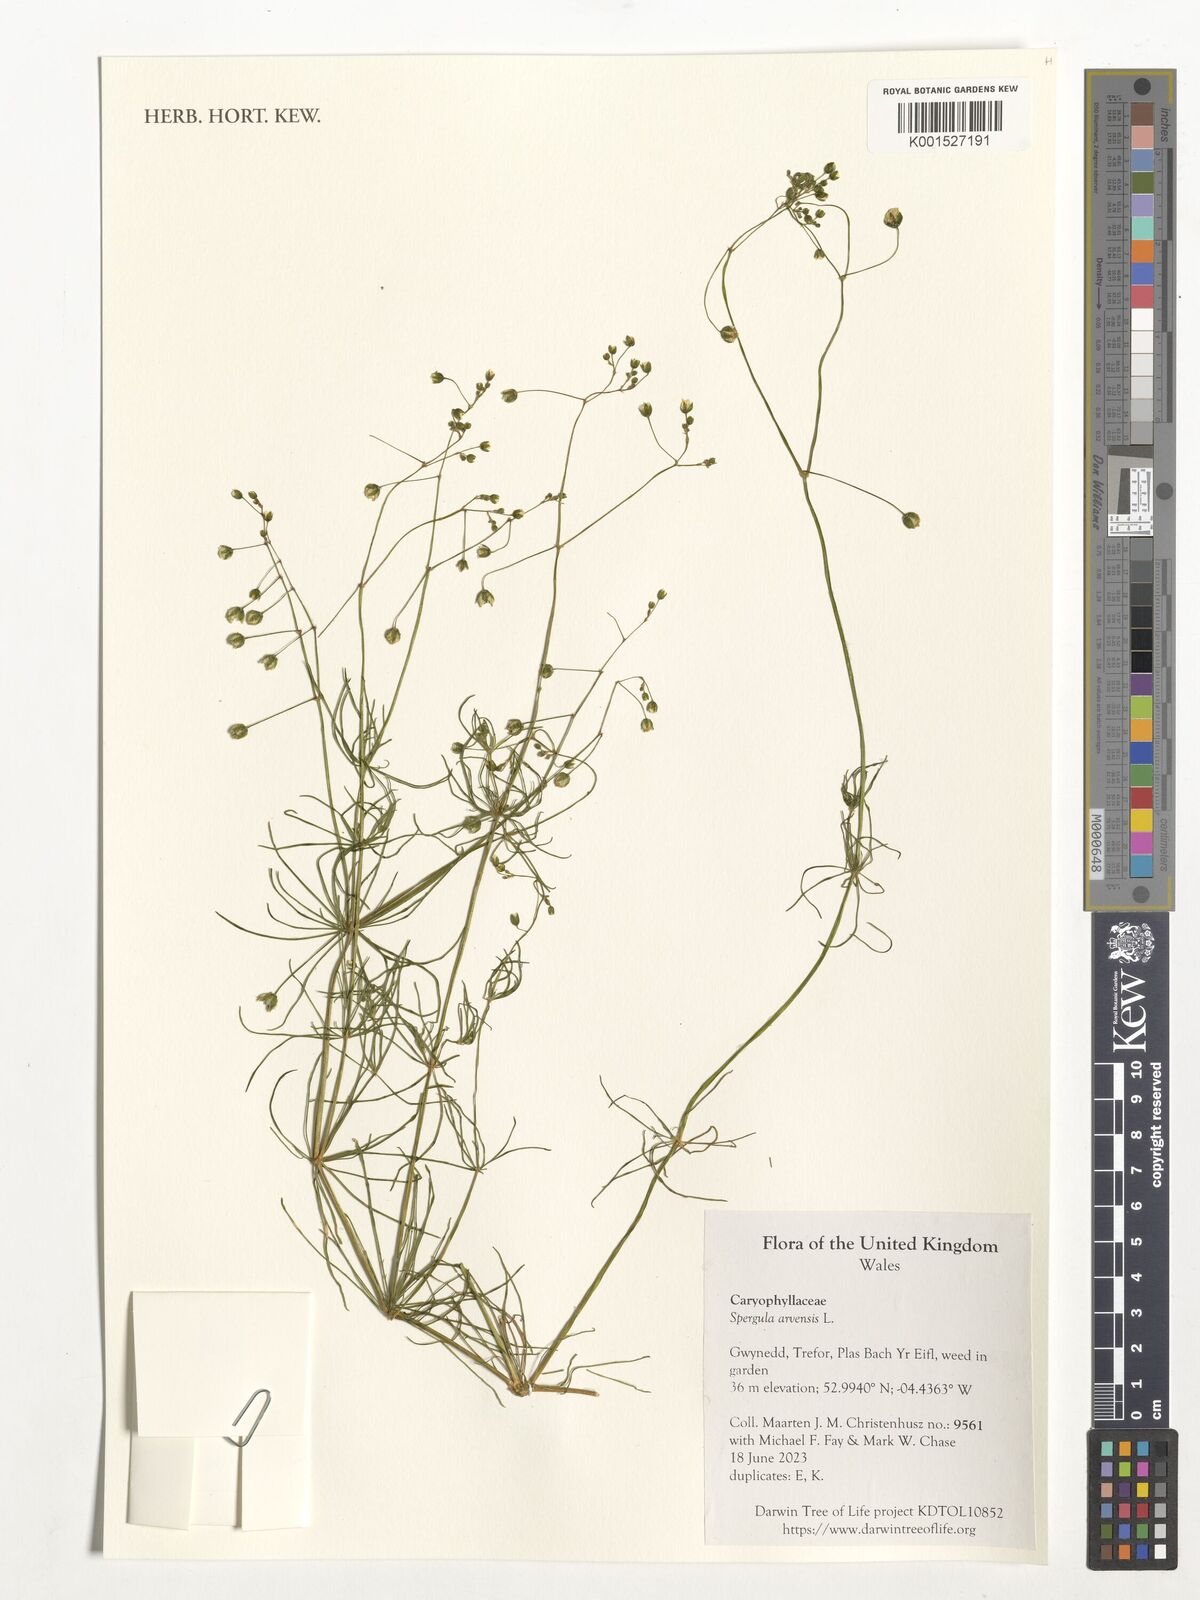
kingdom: Plantae
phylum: Tracheophyta
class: Magnoliopsida
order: Caryophyllales
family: Caryophyllaceae
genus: Spergula
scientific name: Spergula arvensis
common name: Corn spurrey
